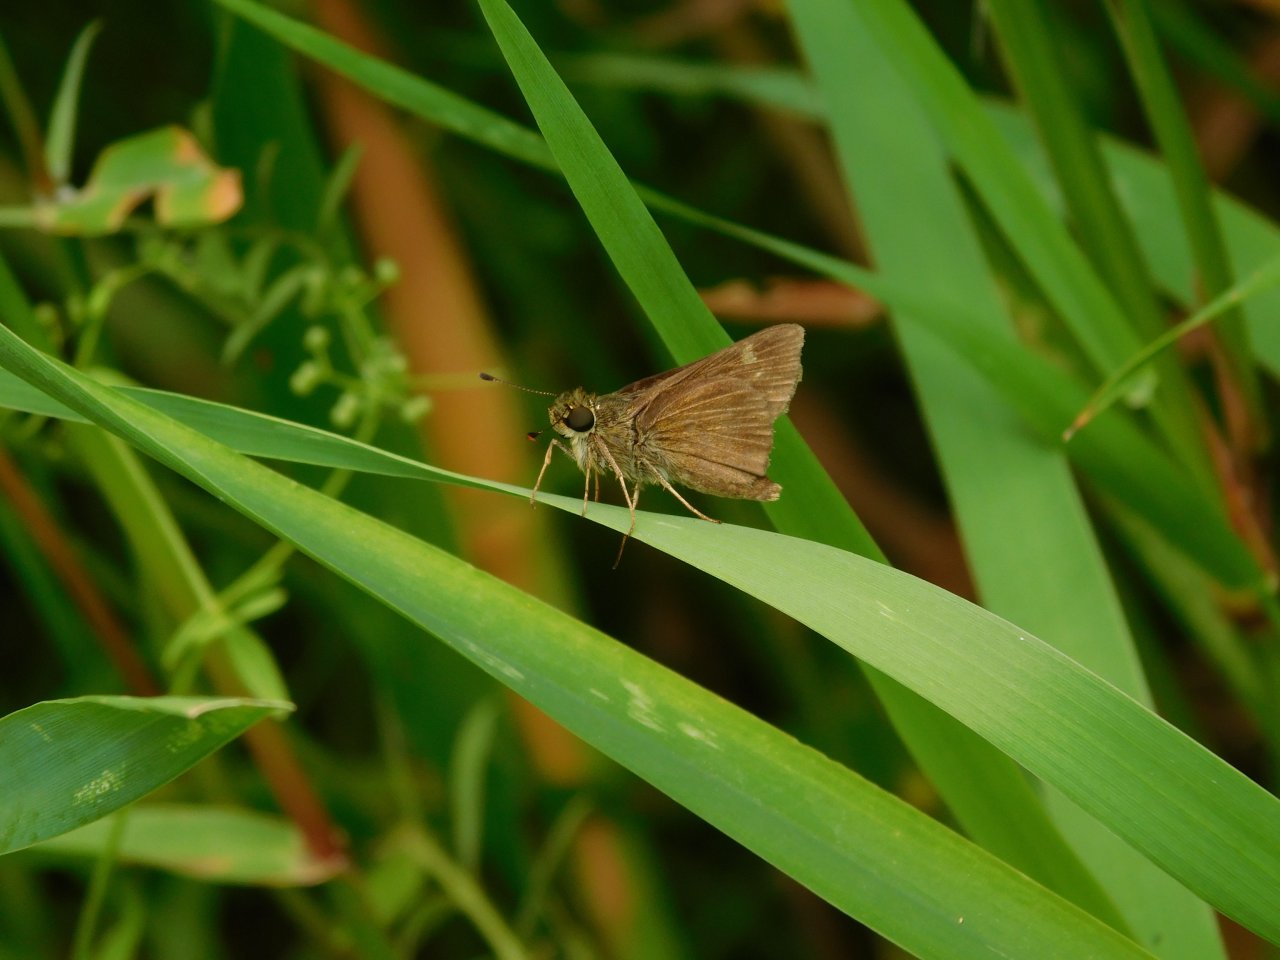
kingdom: Animalia
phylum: Arthropoda
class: Insecta
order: Lepidoptera
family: Hesperiidae
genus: Vernia
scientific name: Vernia verna
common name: Little Glassywing
